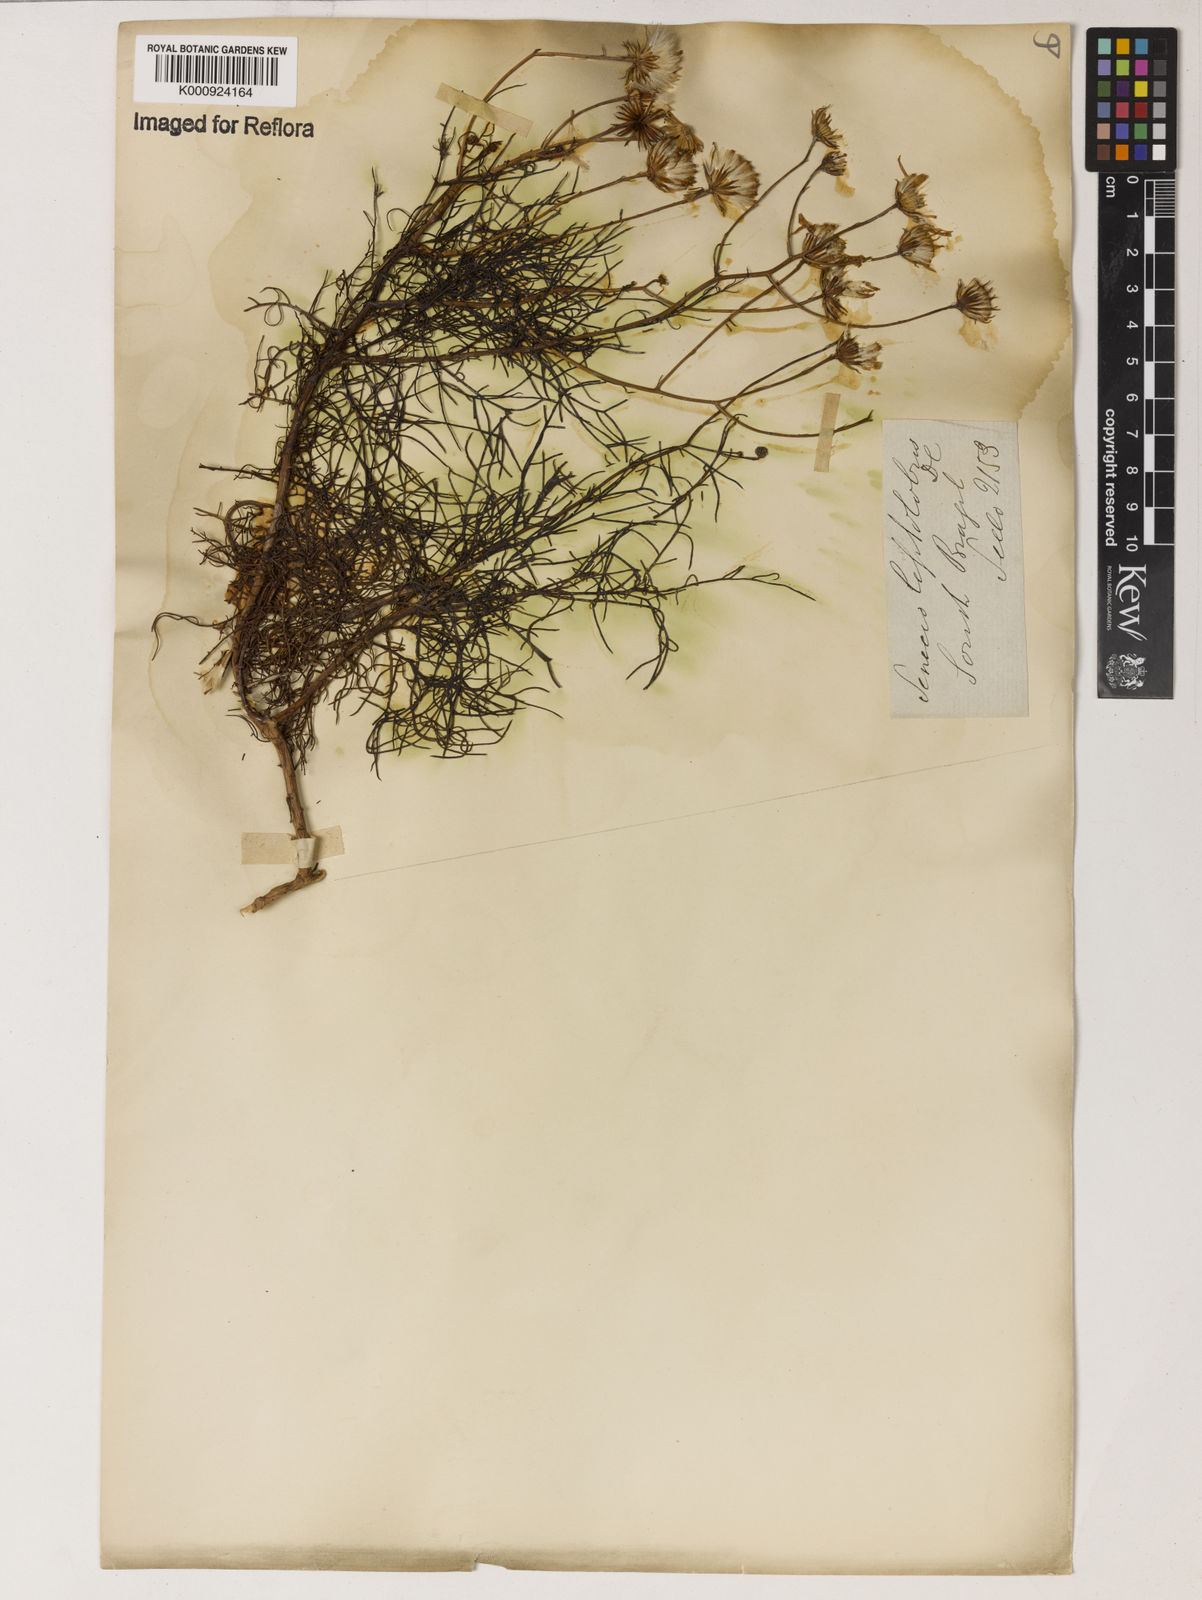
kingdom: Plantae
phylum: Tracheophyta
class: Magnoliopsida
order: Asterales
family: Asteraceae
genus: Senecio
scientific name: Senecio leptolobus
